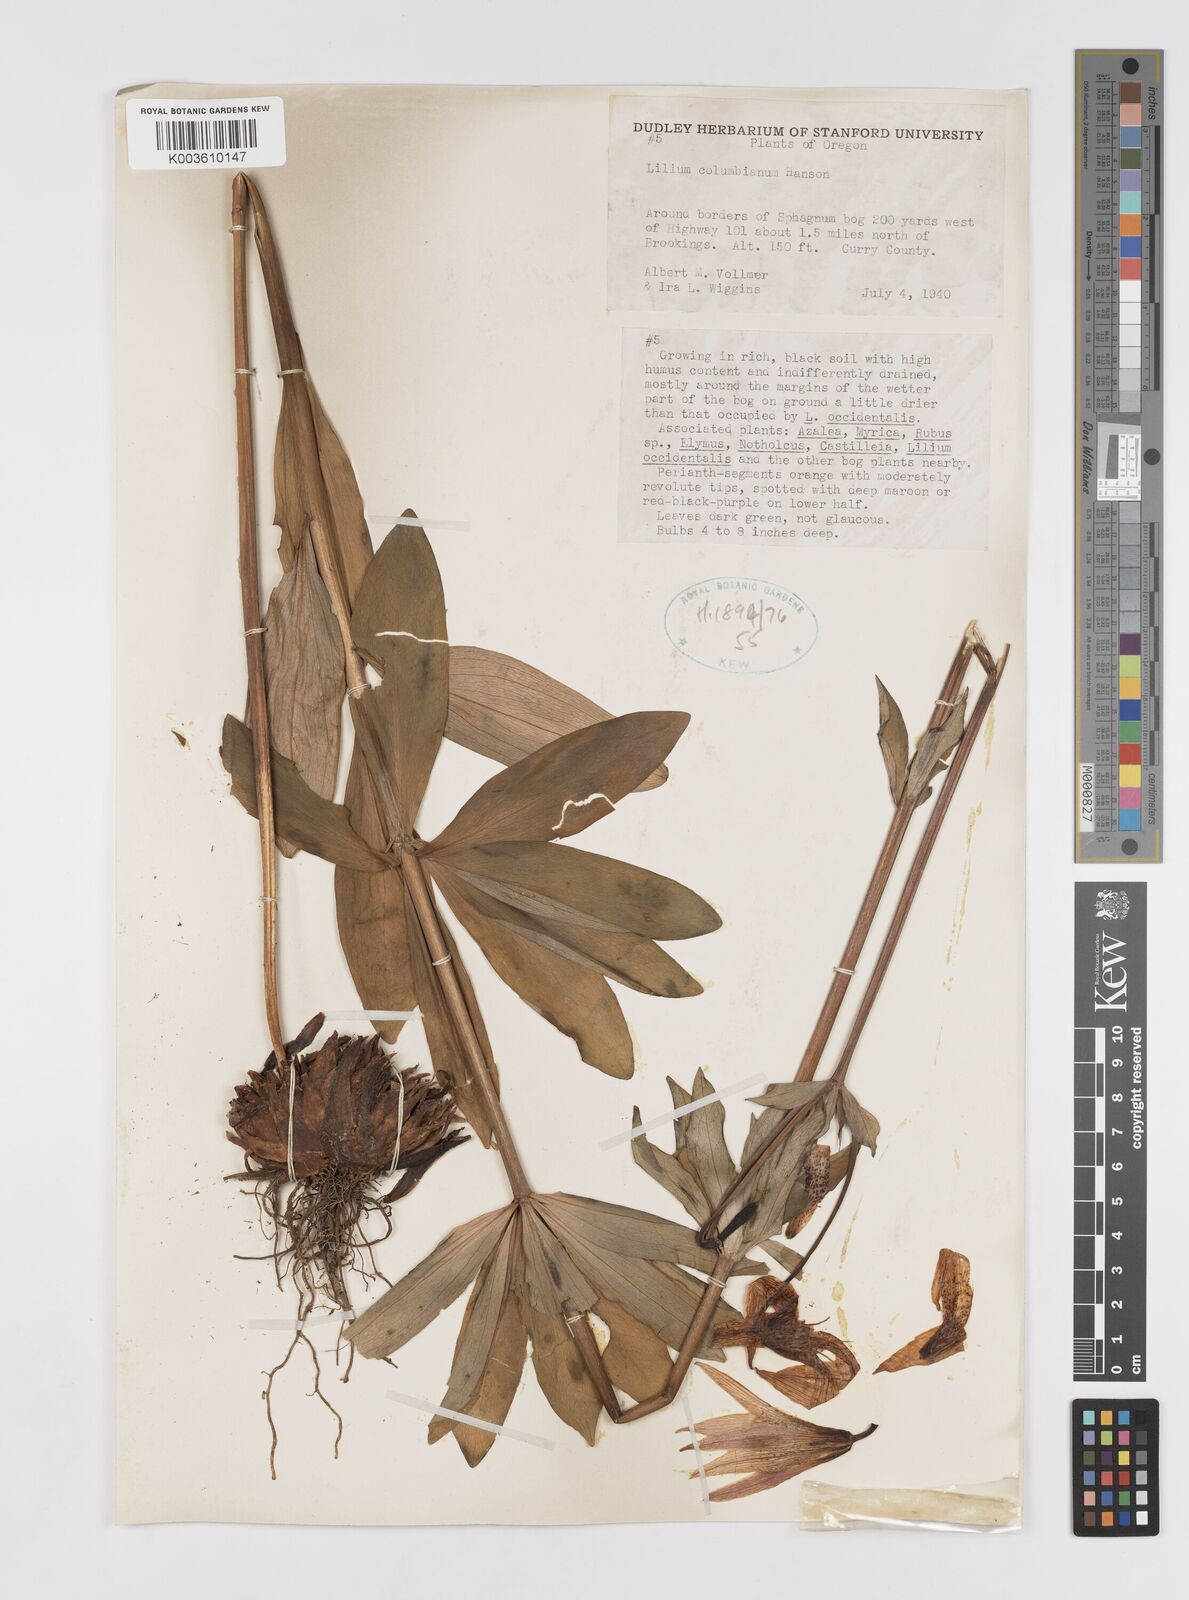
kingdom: Plantae
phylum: Tracheophyta
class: Liliopsida
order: Liliales
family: Liliaceae
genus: Lilium
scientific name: Lilium columbianum
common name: Columbia lily
